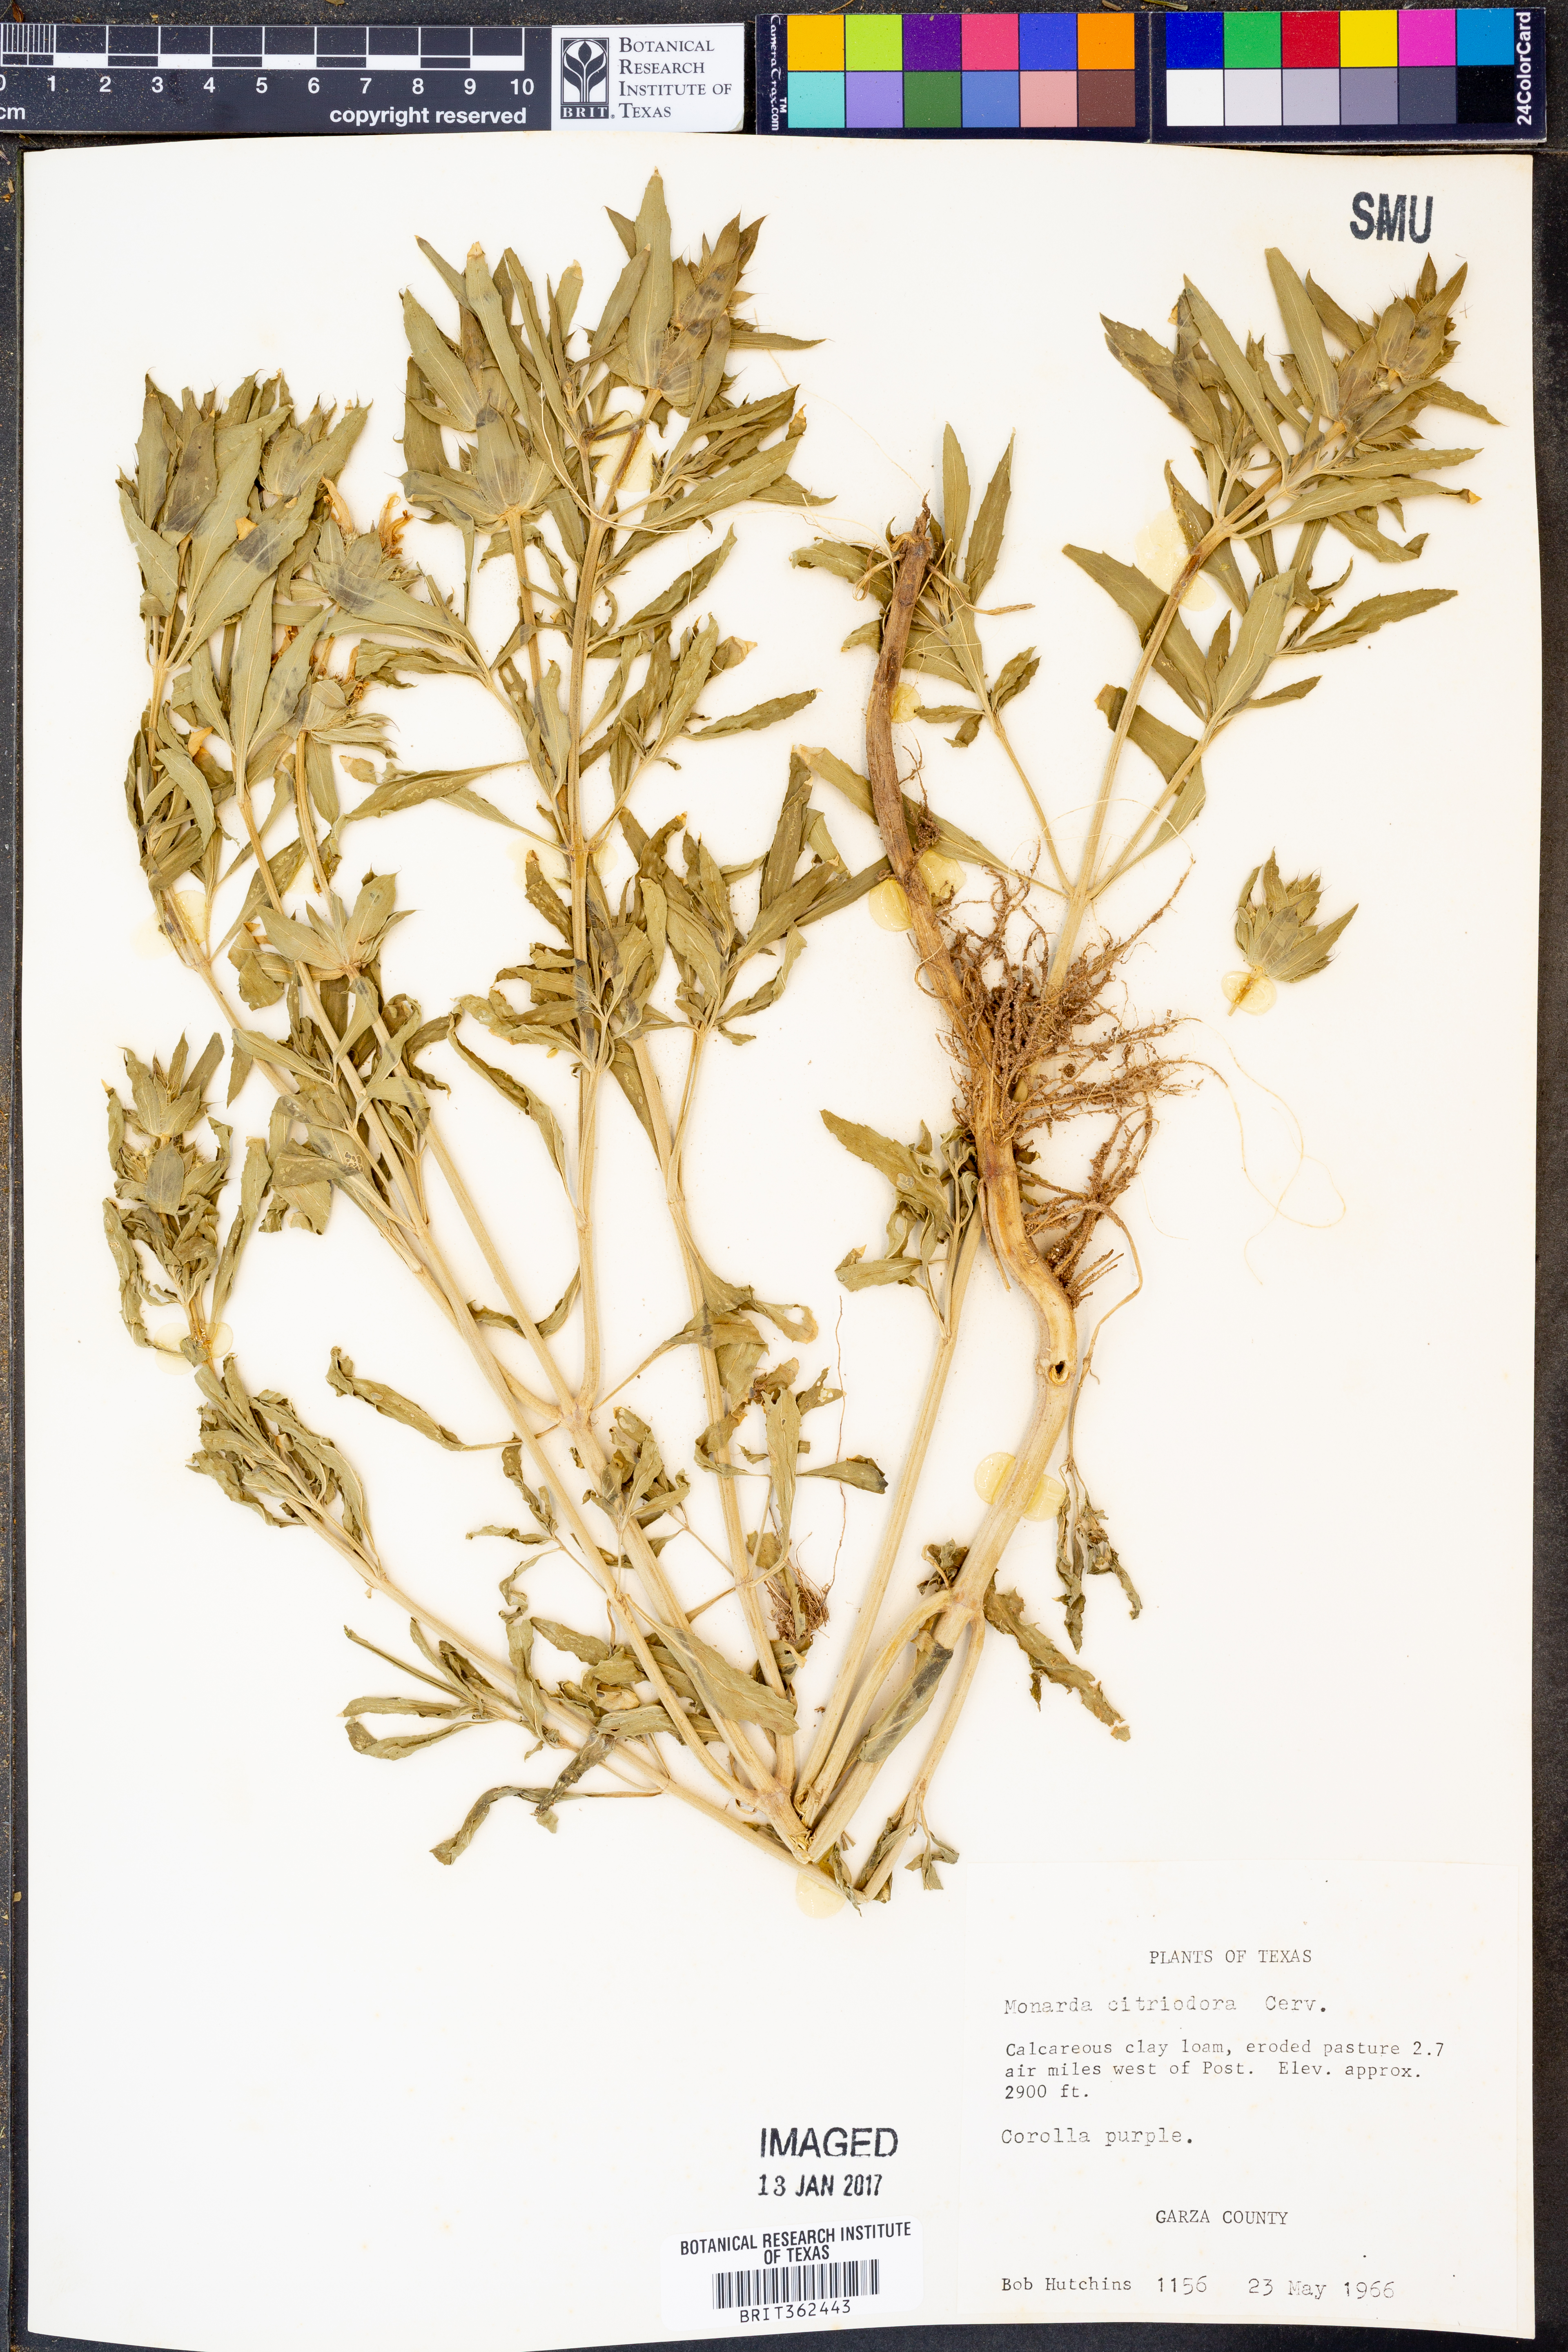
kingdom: Plantae
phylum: Tracheophyta
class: Magnoliopsida
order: Lamiales
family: Lamiaceae
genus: Monarda
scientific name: Monarda citriodora
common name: Lemon beebalm
